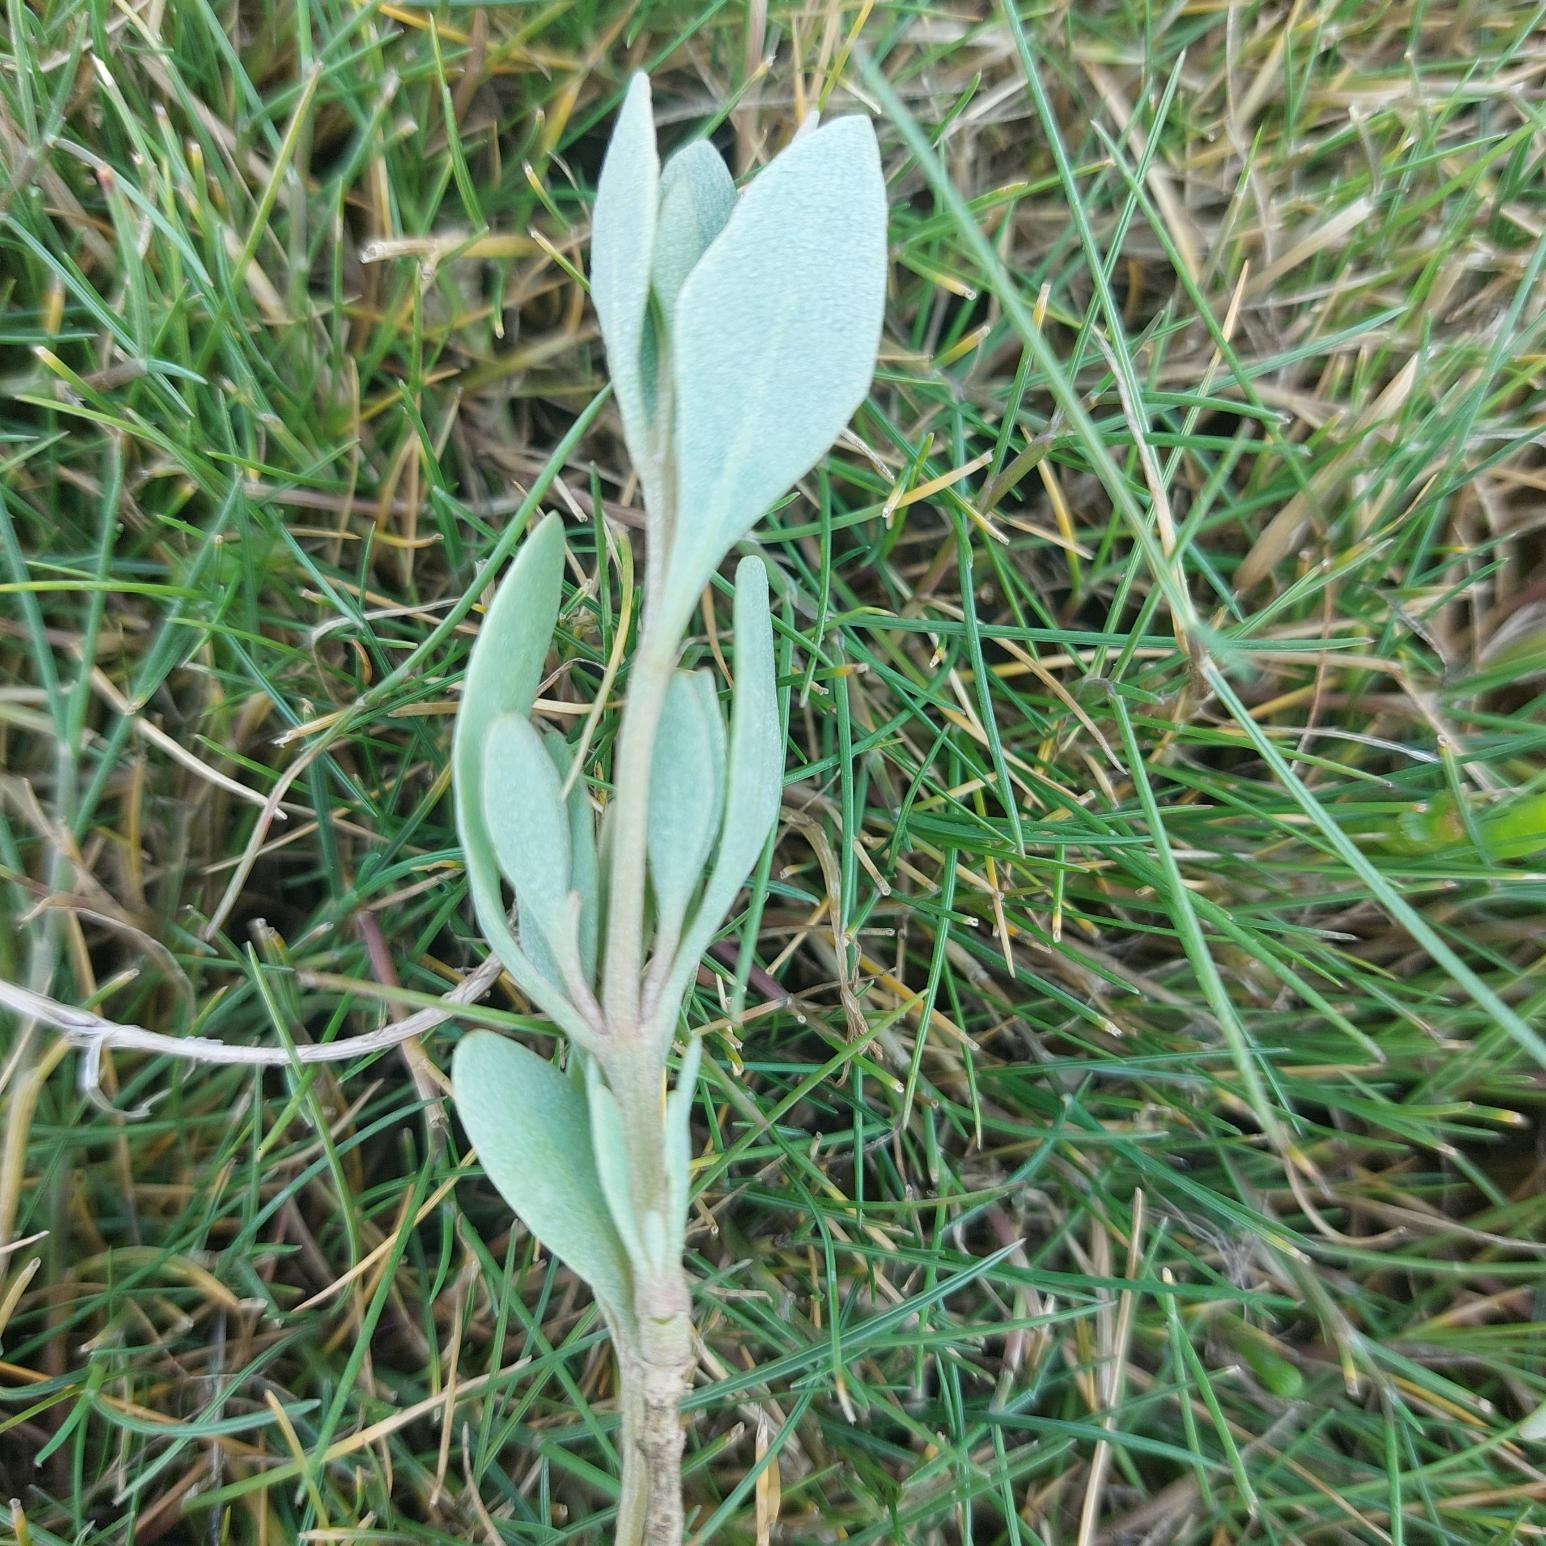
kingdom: Plantae
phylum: Tracheophyta
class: Magnoliopsida
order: Caryophyllales
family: Amaranthaceae
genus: Halimione
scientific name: Halimione portulacoides
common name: Stilkløs kilebæger
